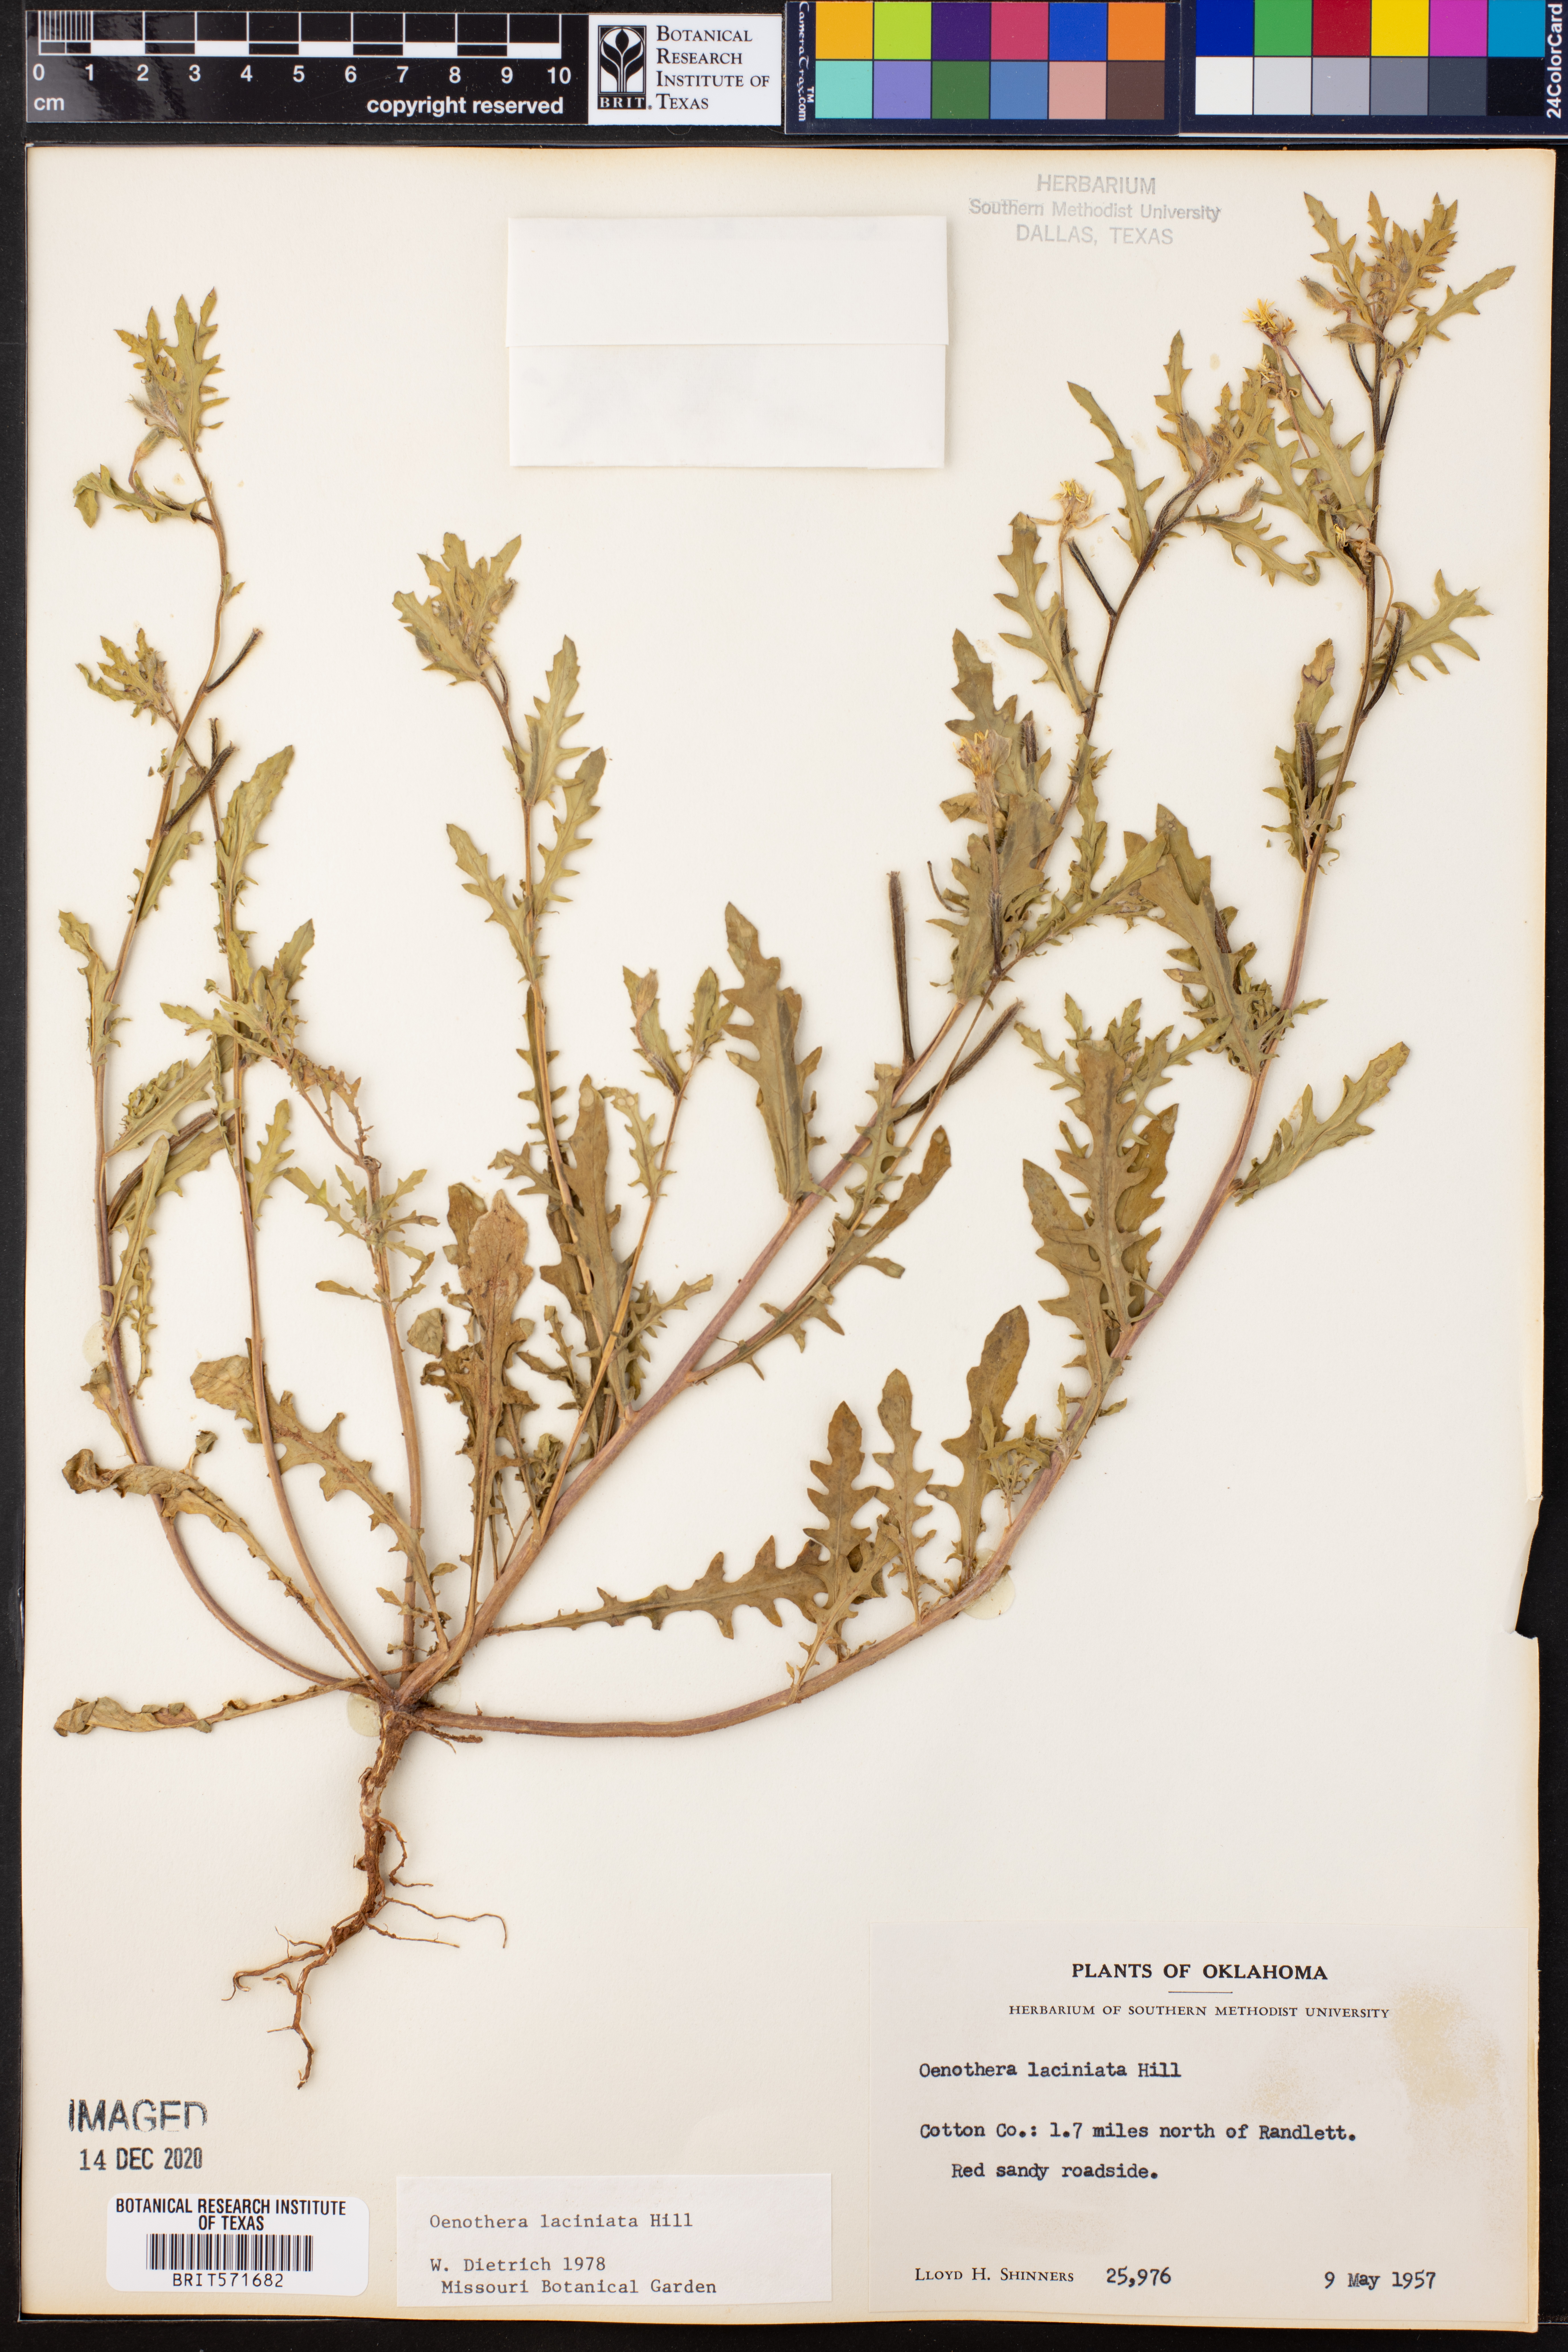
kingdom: Plantae
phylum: Tracheophyta
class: Magnoliopsida
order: Myrtales
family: Onagraceae
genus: Oenothera
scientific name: Oenothera laciniata
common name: Cut-leaved evening-primrose
